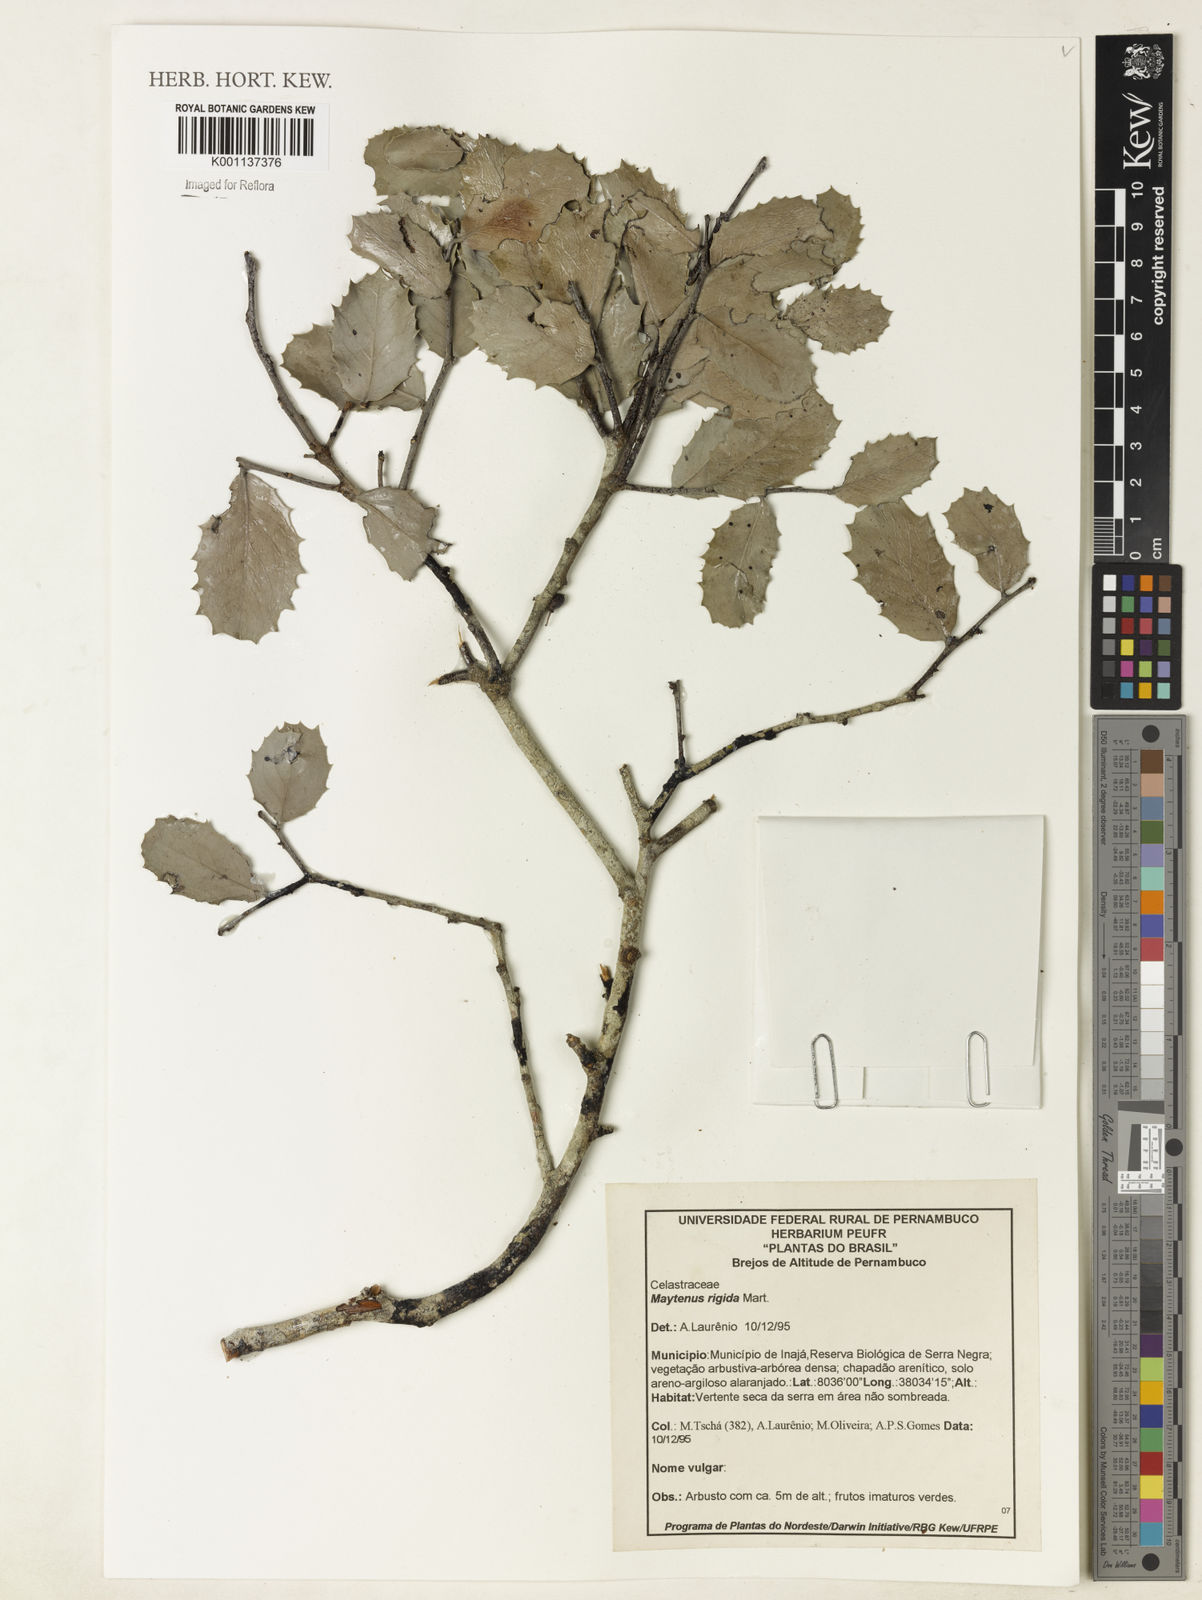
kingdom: Plantae
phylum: Tracheophyta
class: Magnoliopsida
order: Celastrales
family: Celastraceae
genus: Monteverdia
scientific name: Monteverdia rigida
